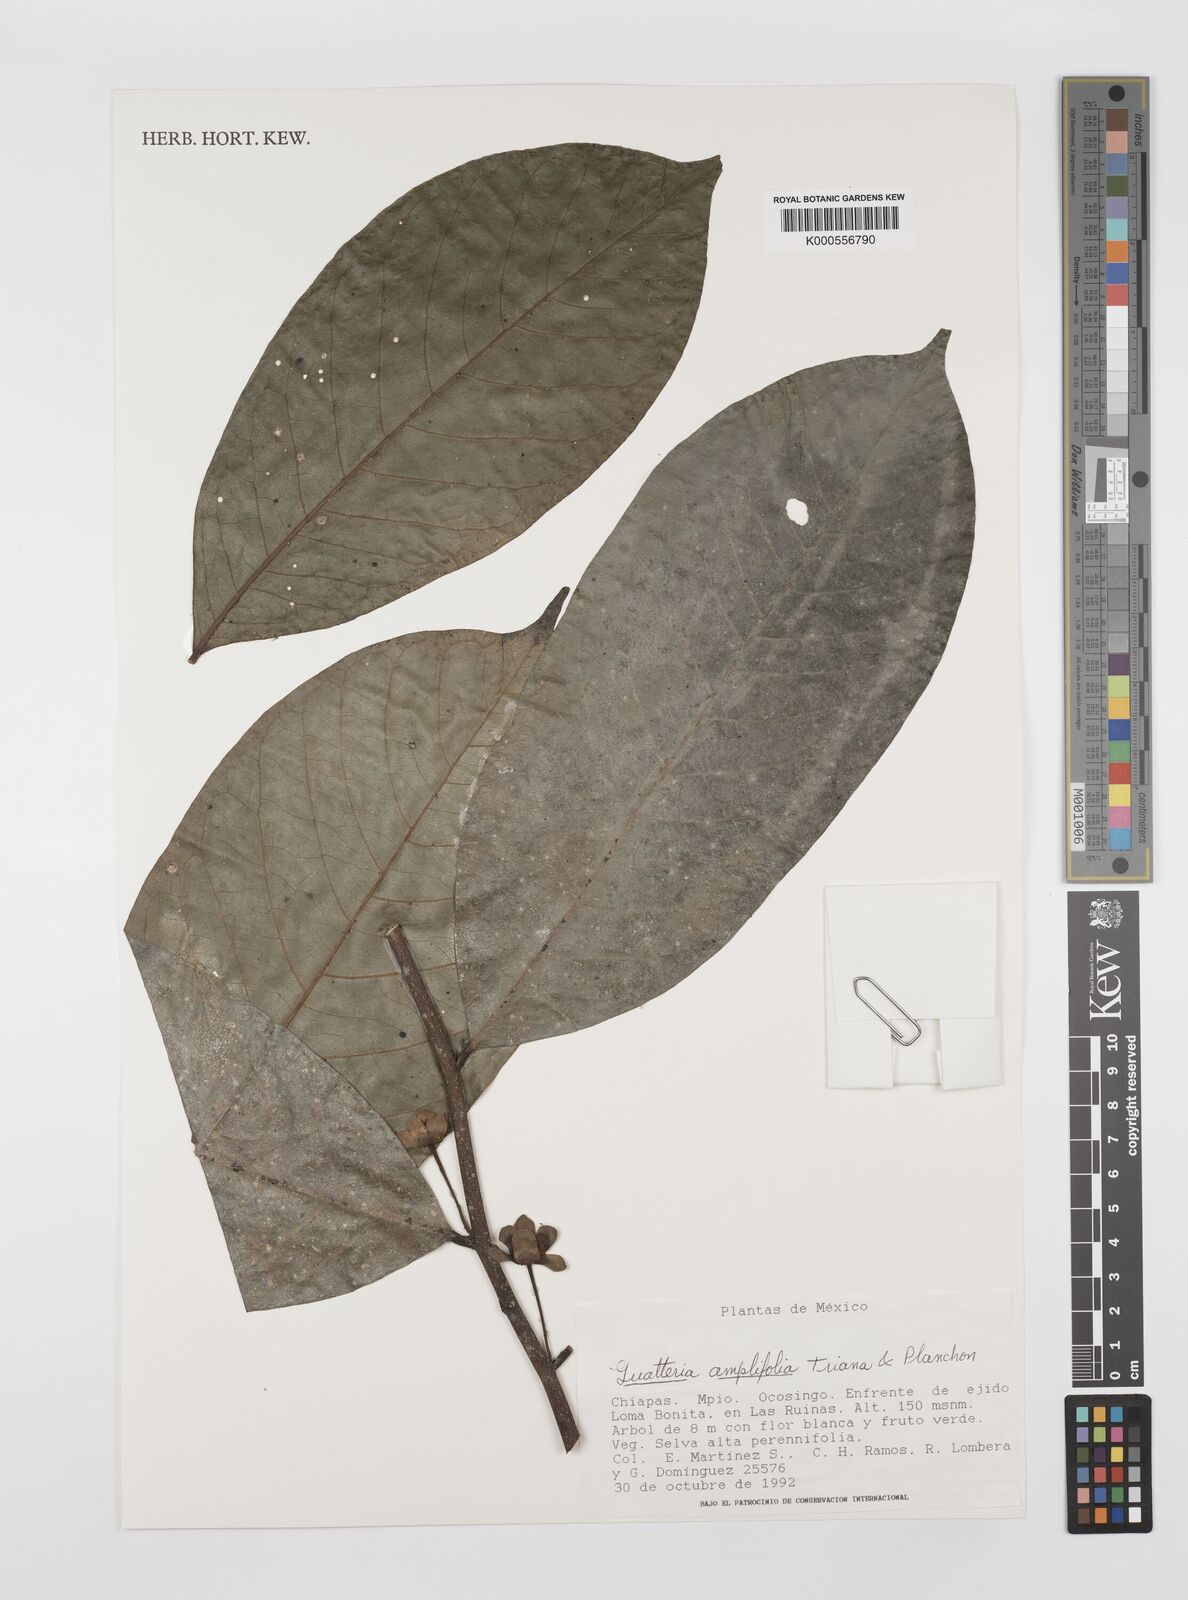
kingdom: Plantae
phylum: Tracheophyta
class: Magnoliopsida
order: Magnoliales
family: Annonaceae
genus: Guatteria
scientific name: Guatteria amplifolia
